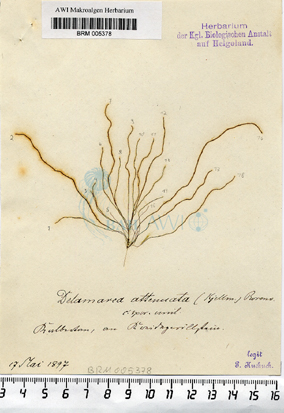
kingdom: Chromista
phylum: Ochrophyta
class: Phaeophyceae
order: Ectocarpales
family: Chordariaceae
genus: Delamarea
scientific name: Delamarea attenuata
